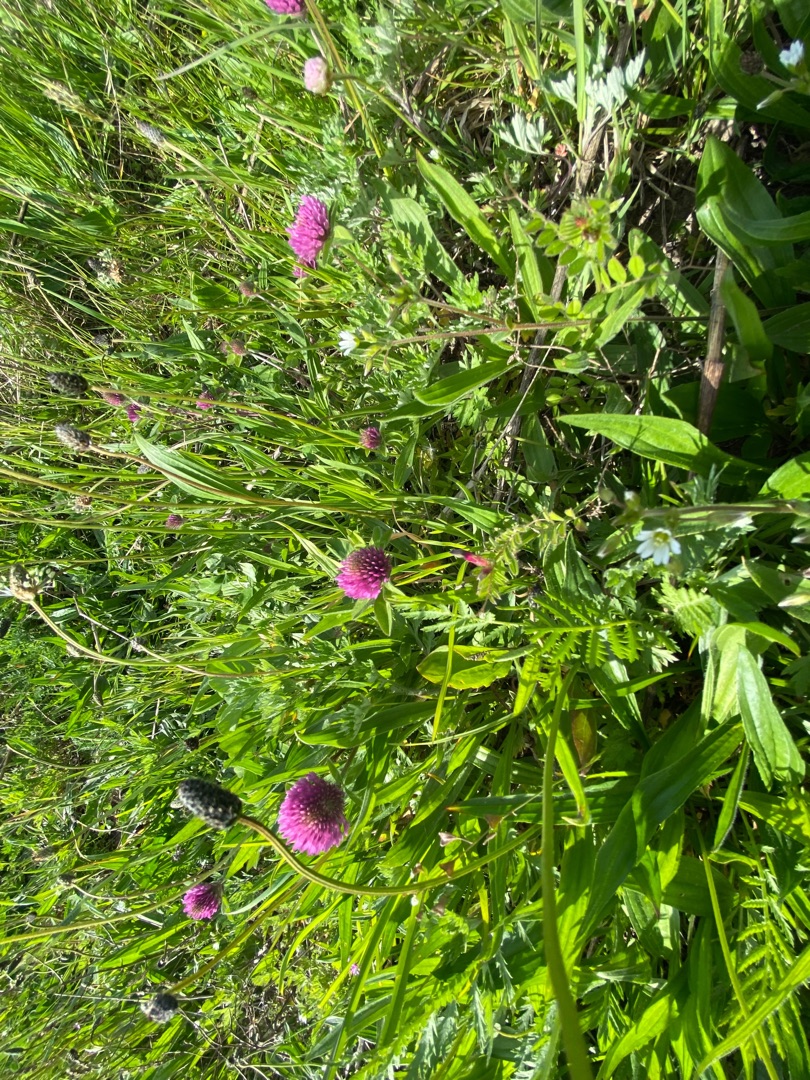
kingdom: Plantae
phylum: Tracheophyta
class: Magnoliopsida
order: Fabales
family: Fabaceae
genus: Trifolium
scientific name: Trifolium pratense
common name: Rød-kløver
